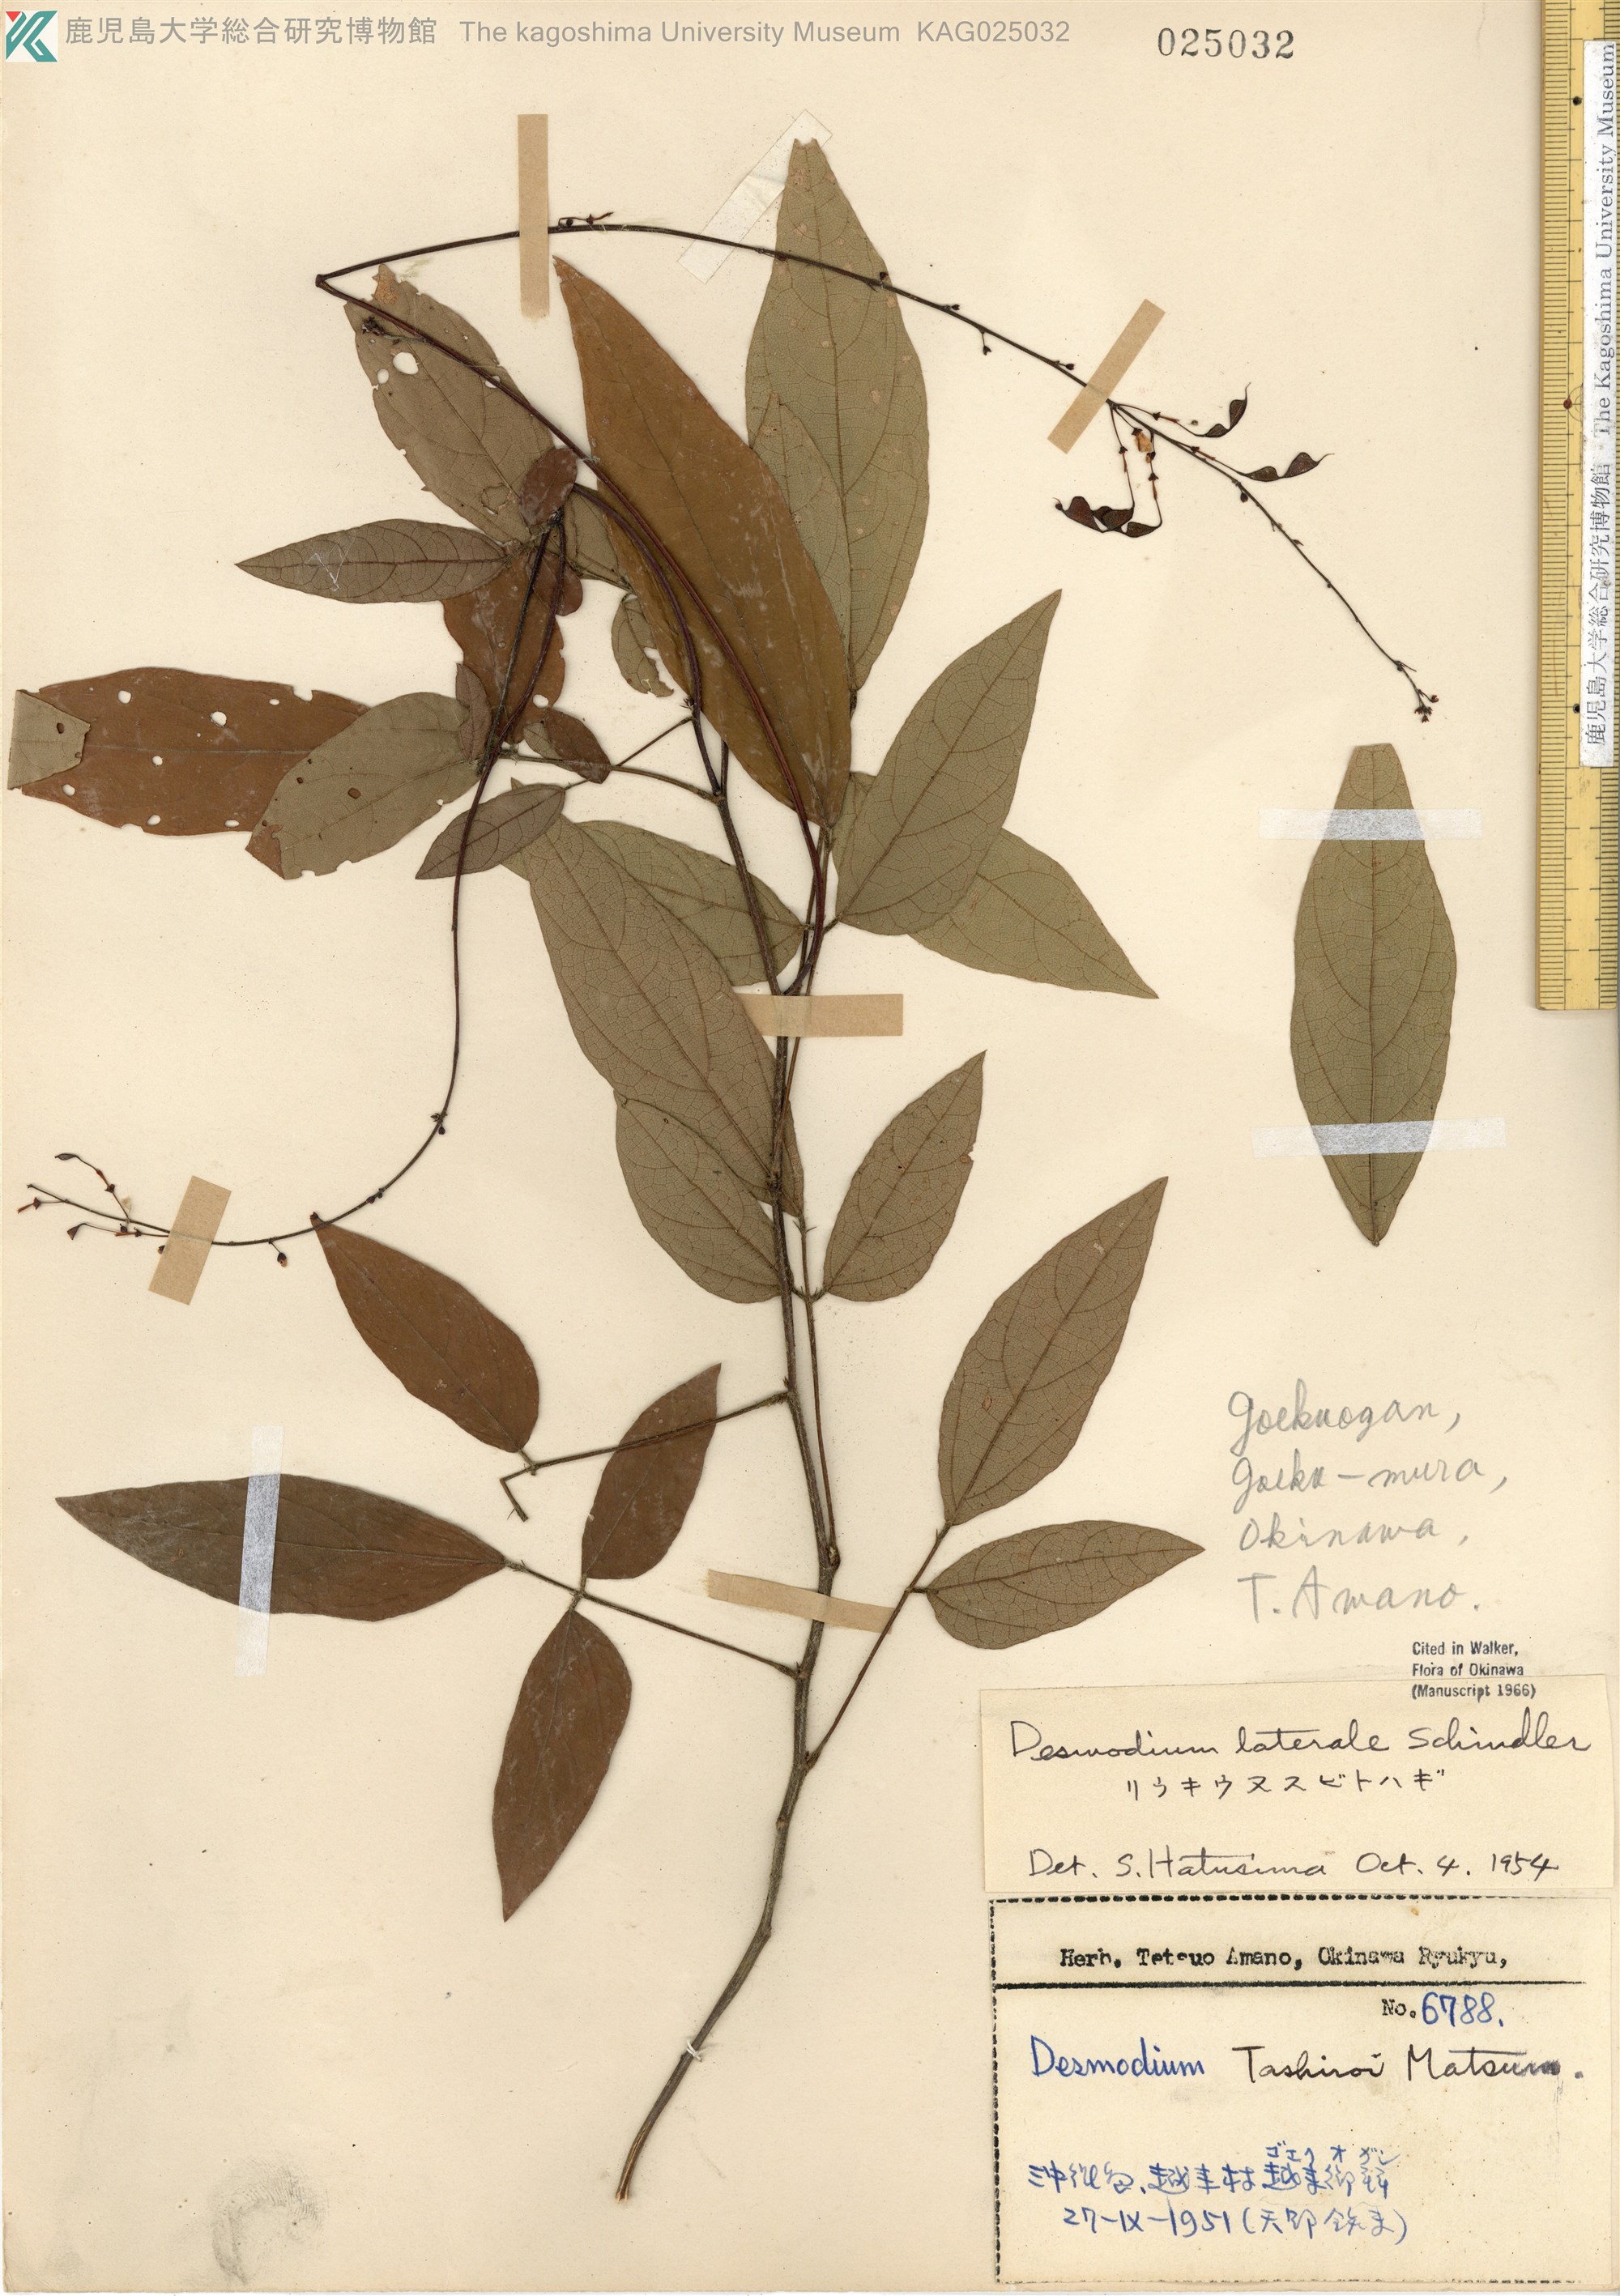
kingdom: Plantae
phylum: Tracheophyta
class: Magnoliopsida
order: Fabales
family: Fabaceae
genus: Hylodesmum
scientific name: Hylodesmum laterale
